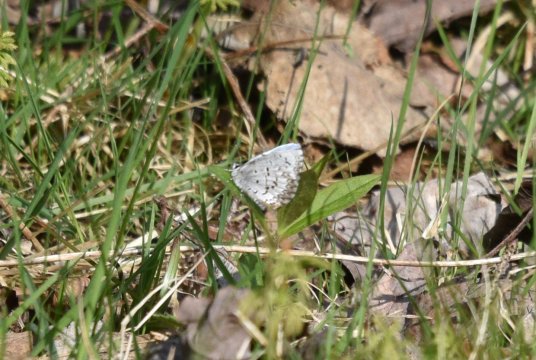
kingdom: Animalia
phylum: Arthropoda
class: Insecta
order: Lepidoptera
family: Lycaenidae
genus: Celastrina
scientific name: Celastrina lucia
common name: Northern Spring Azure
